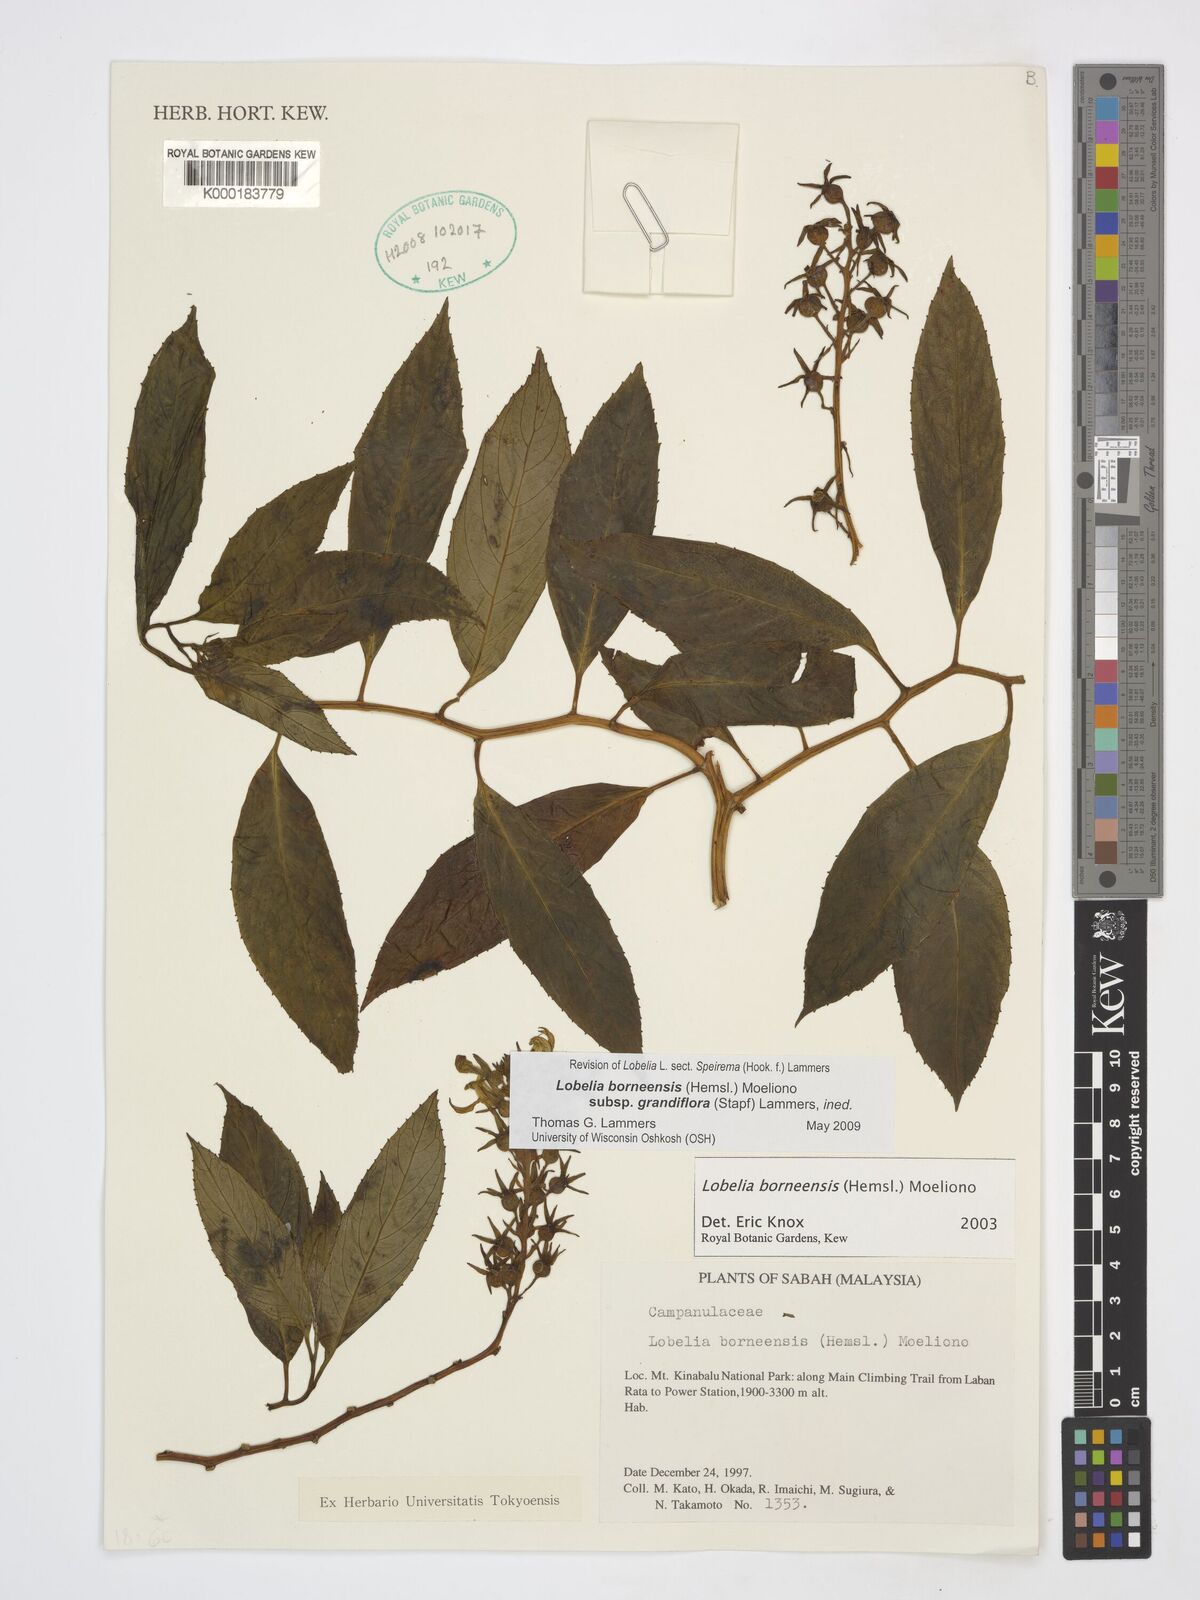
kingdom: Plantae
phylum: Tracheophyta
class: Magnoliopsida
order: Asterales
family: Campanulaceae
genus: Lobelia
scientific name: Lobelia borneensis
